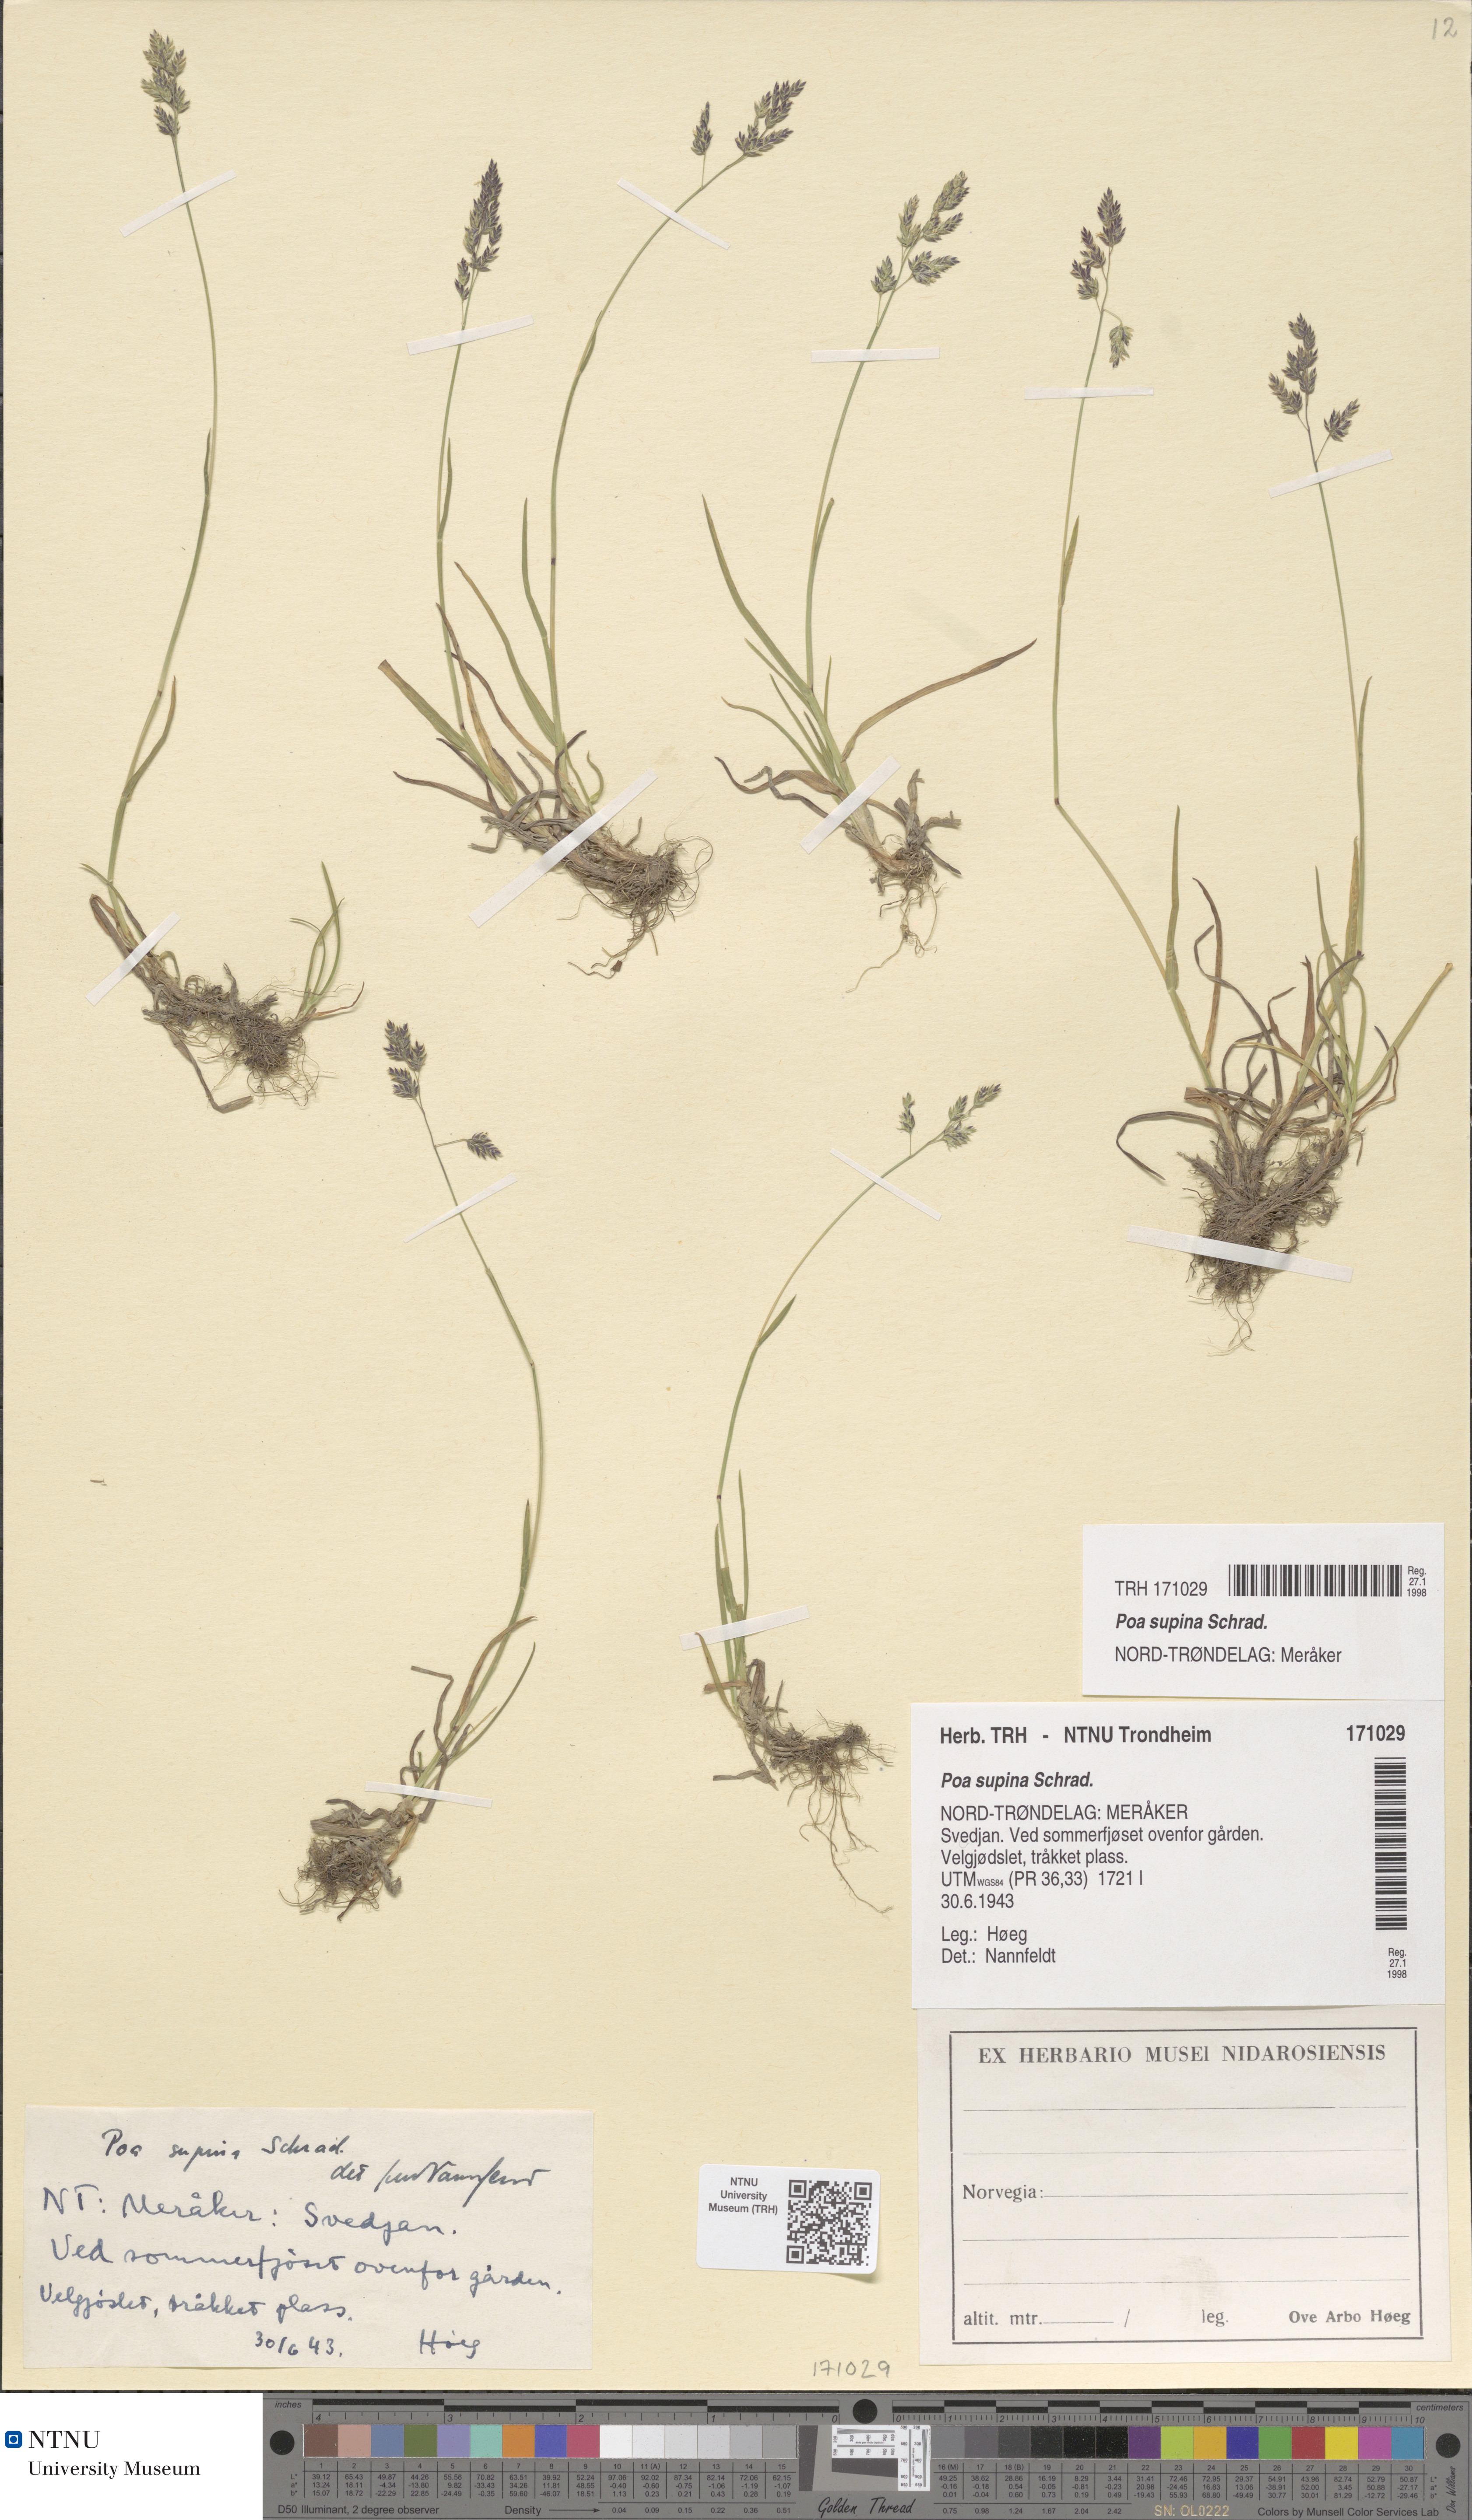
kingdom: Plantae
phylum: Tracheophyta
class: Liliopsida
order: Poales
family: Poaceae
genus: Poa
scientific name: Poa supina
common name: Supina bluegrass
